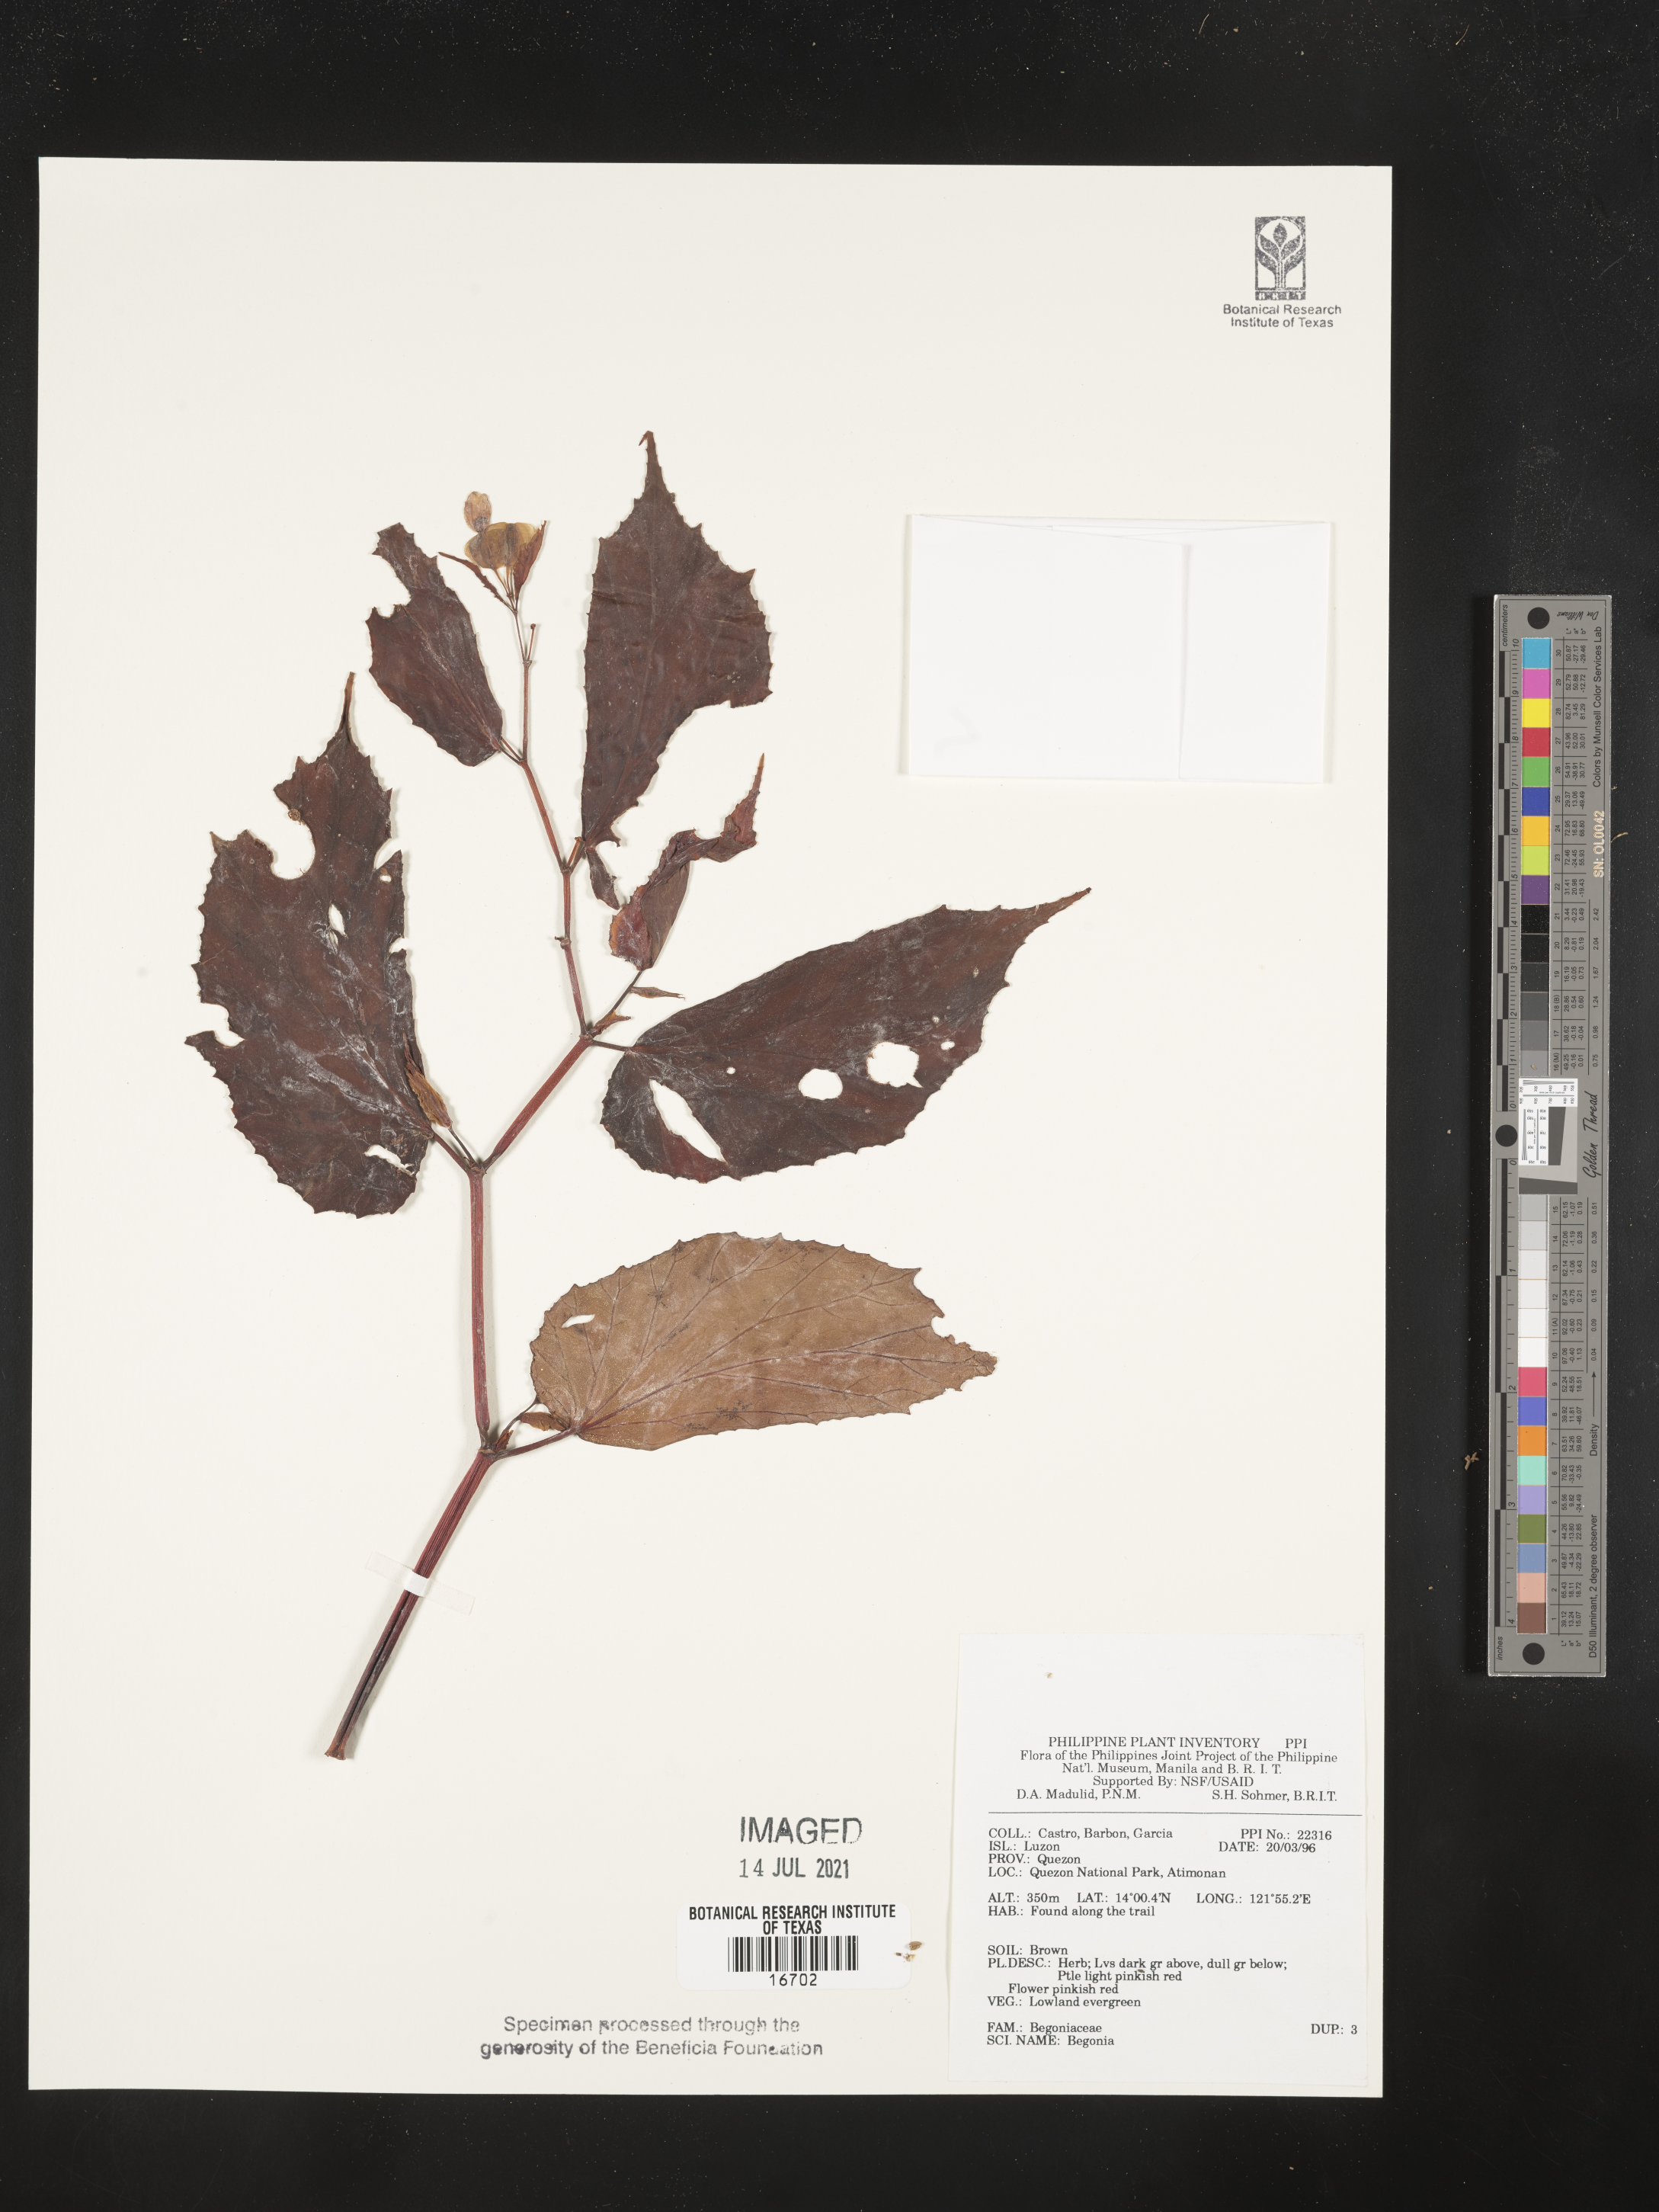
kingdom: Plantae
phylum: Tracheophyta
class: Magnoliopsida
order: Cucurbitales
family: Begoniaceae
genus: Begonia
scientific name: Begonia
